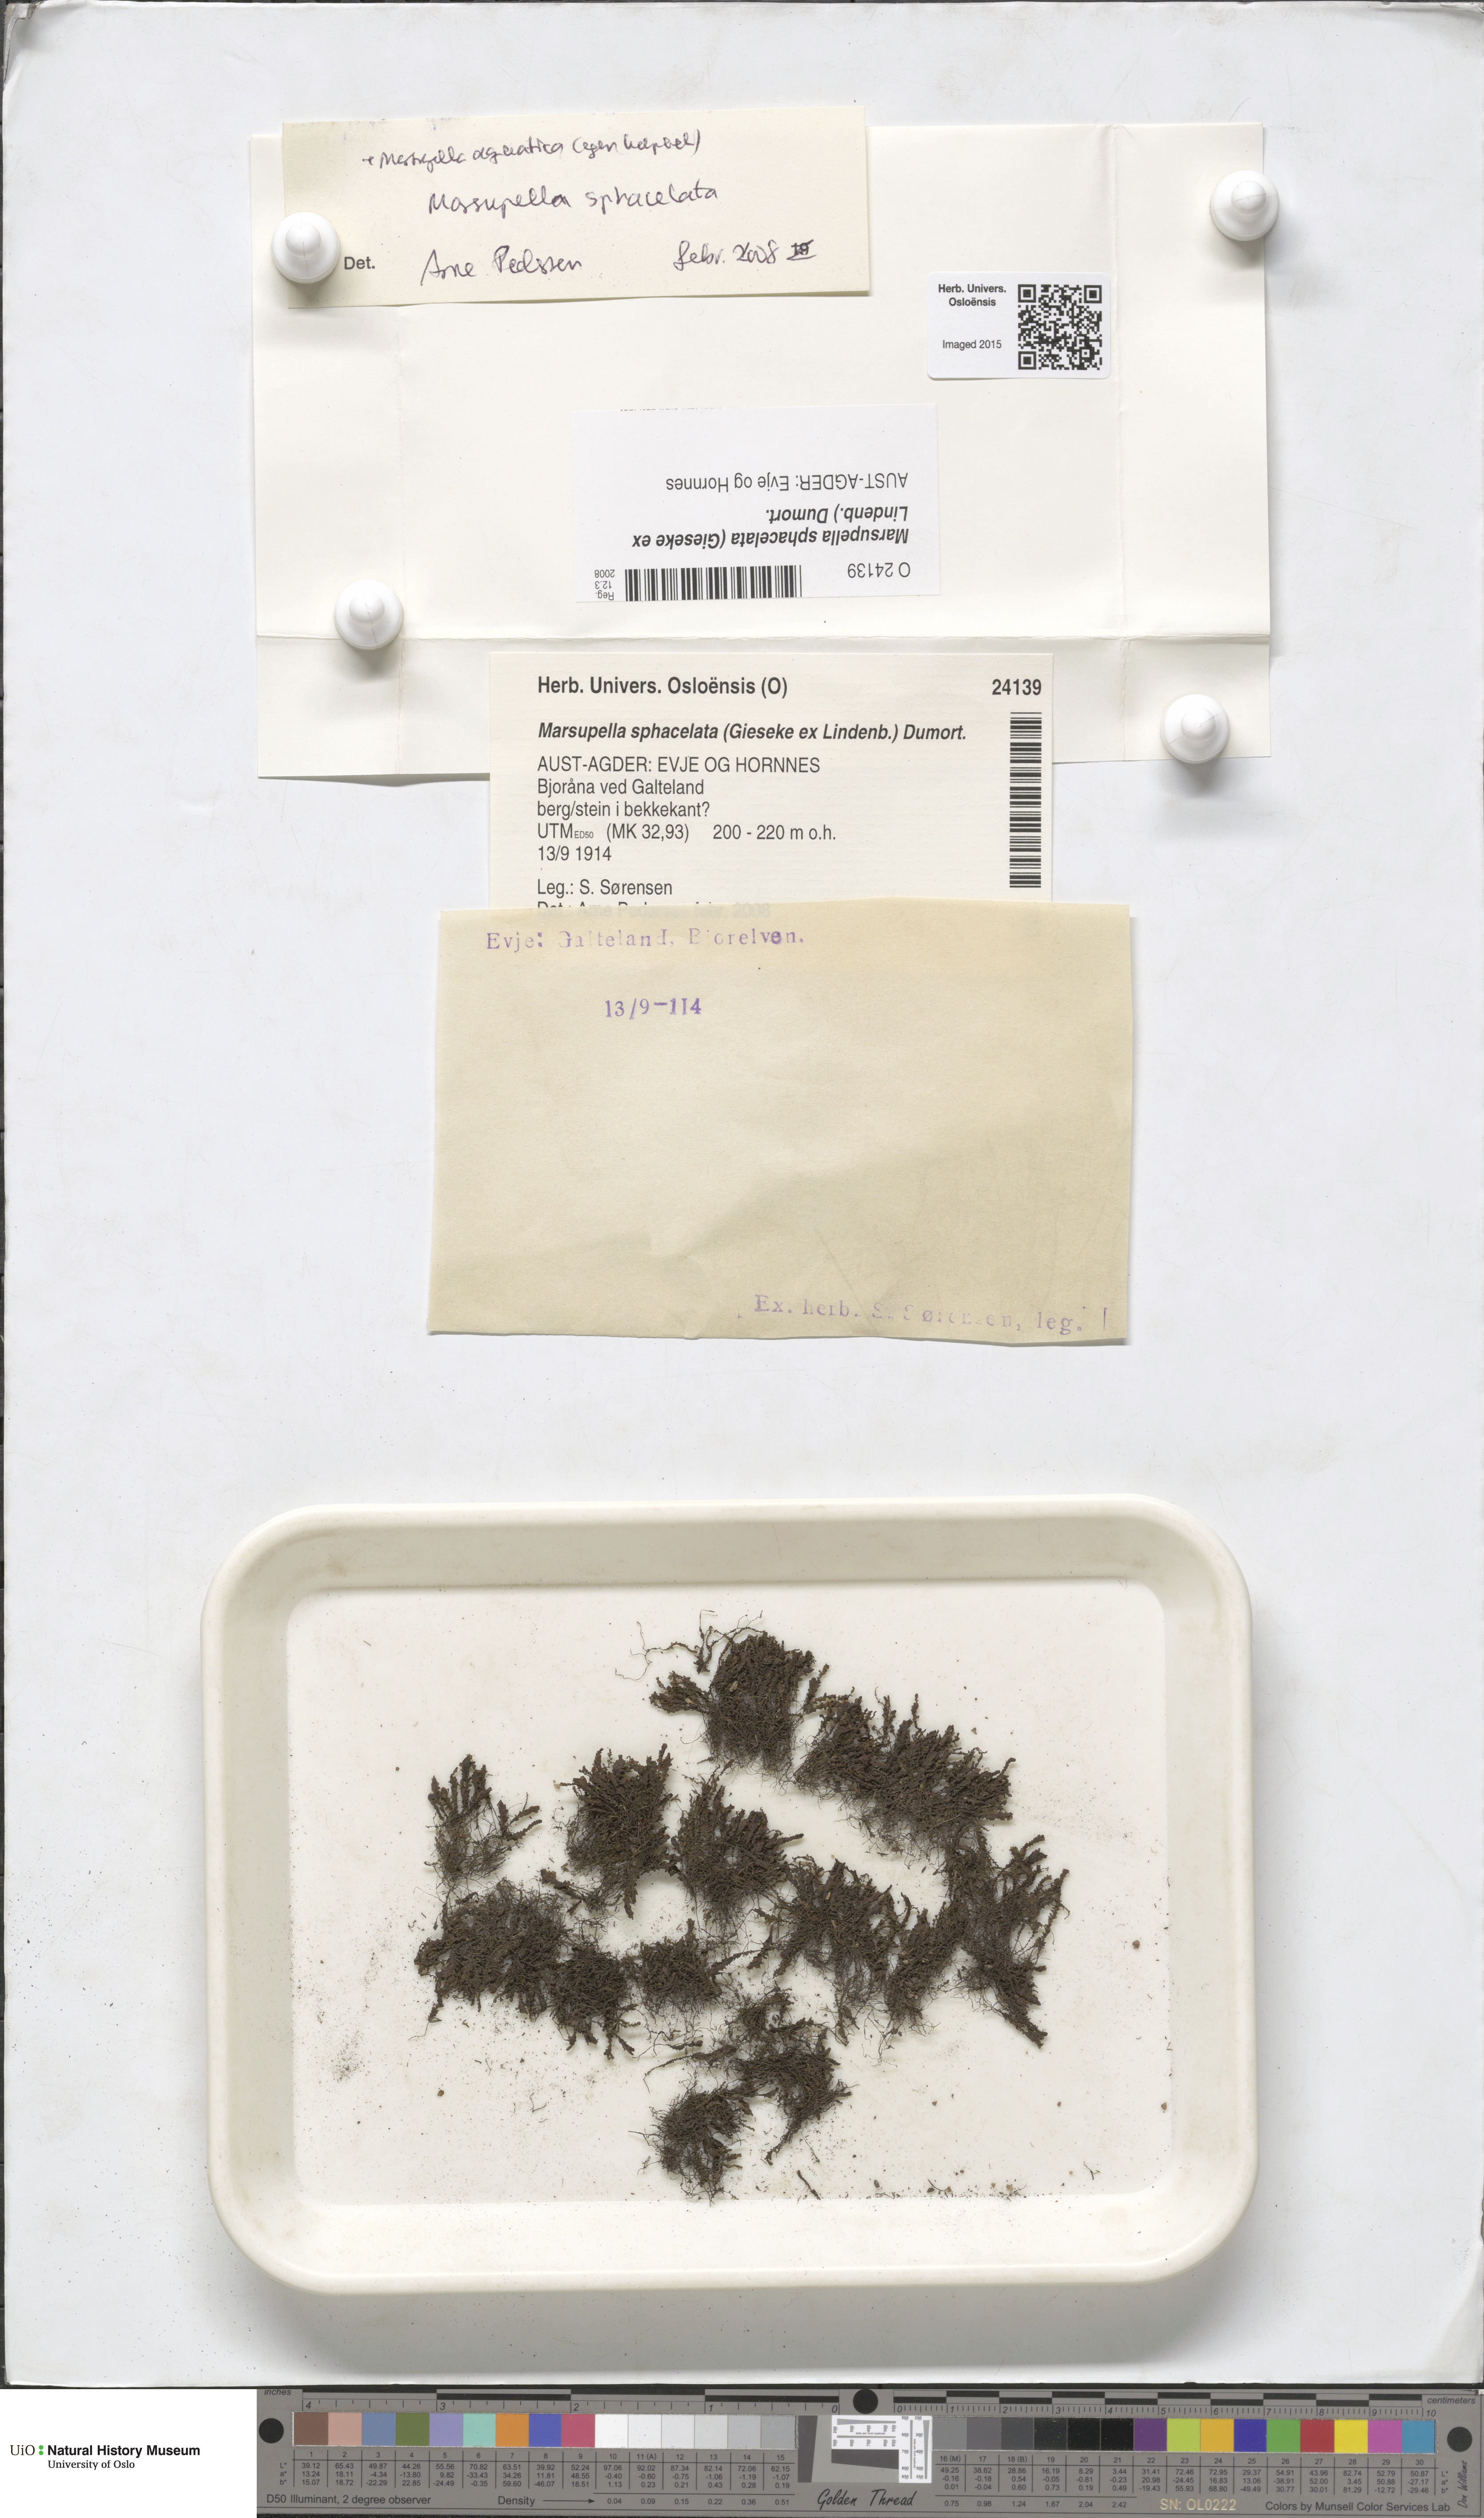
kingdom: Plantae
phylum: Marchantiophyta
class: Jungermanniopsida
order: Jungermanniales
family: Gymnomitriaceae
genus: Marsupella
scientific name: Marsupella sphacelata
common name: Speckled rustwort
